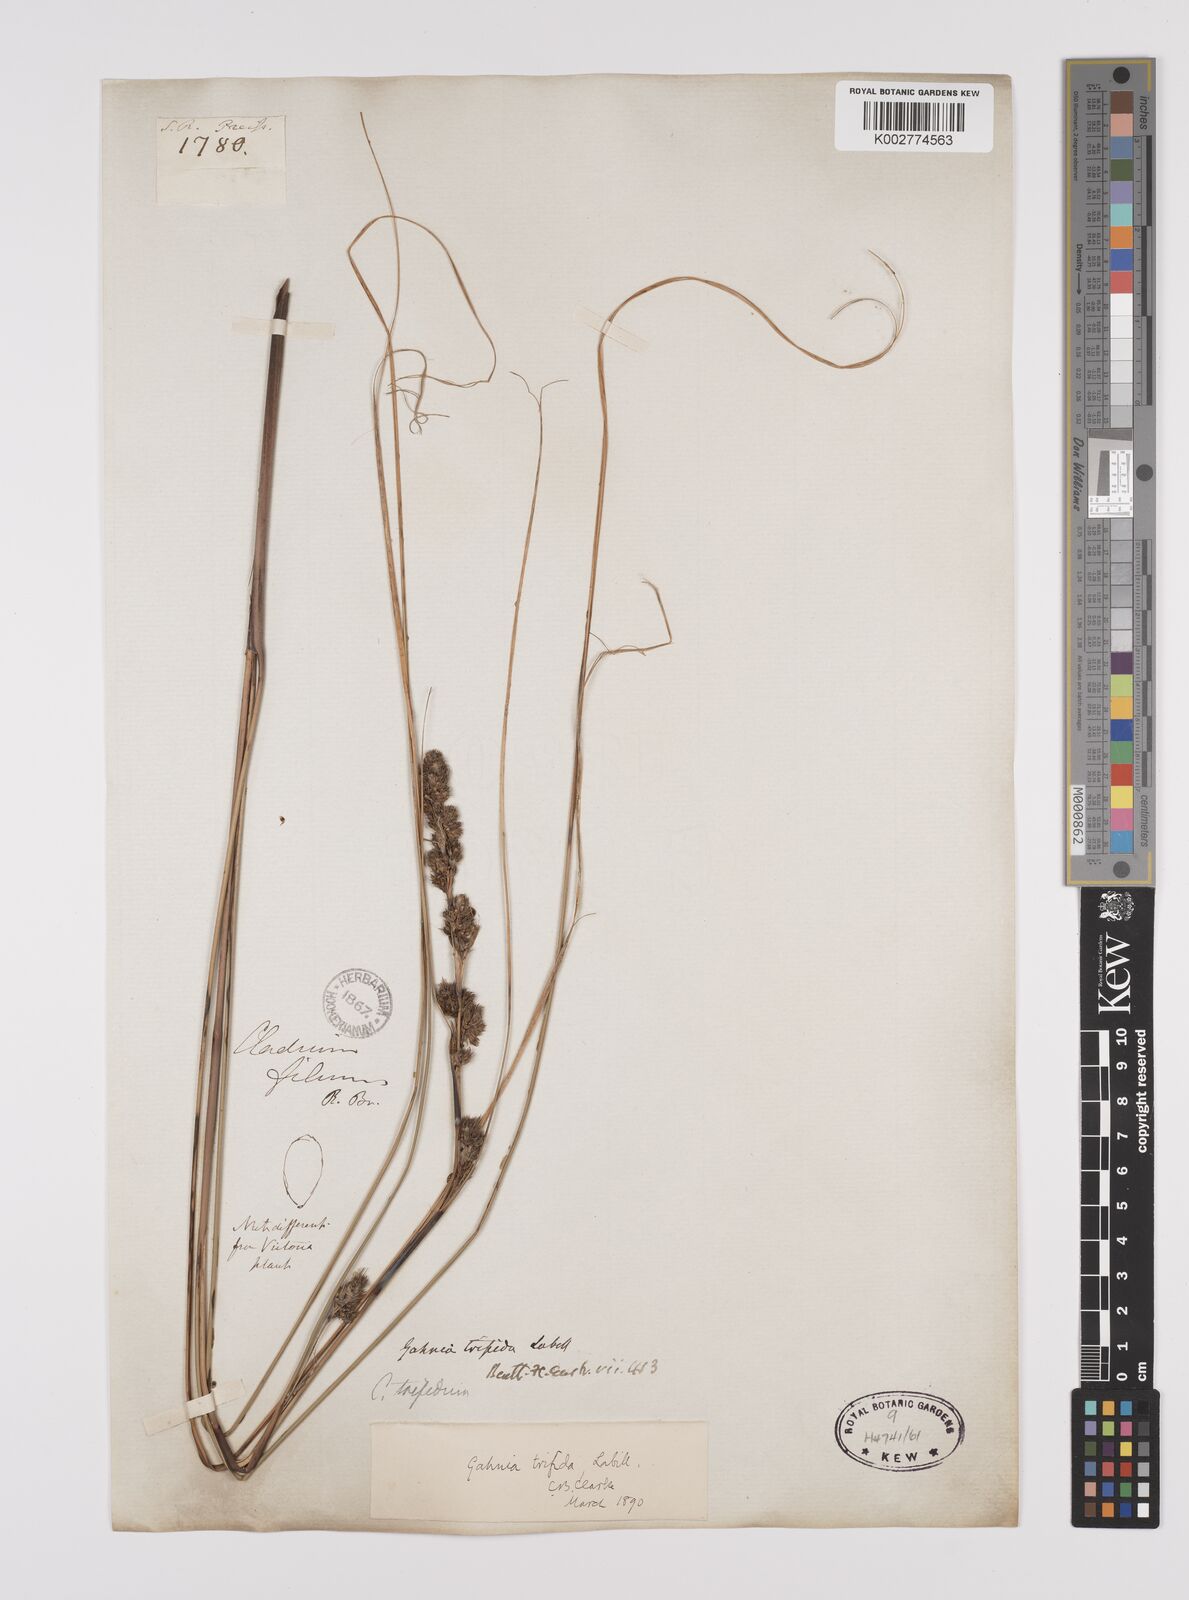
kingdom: Plantae
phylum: Tracheophyta
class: Liliopsida
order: Poales
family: Cyperaceae
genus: Gahnia
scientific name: Gahnia trifida
